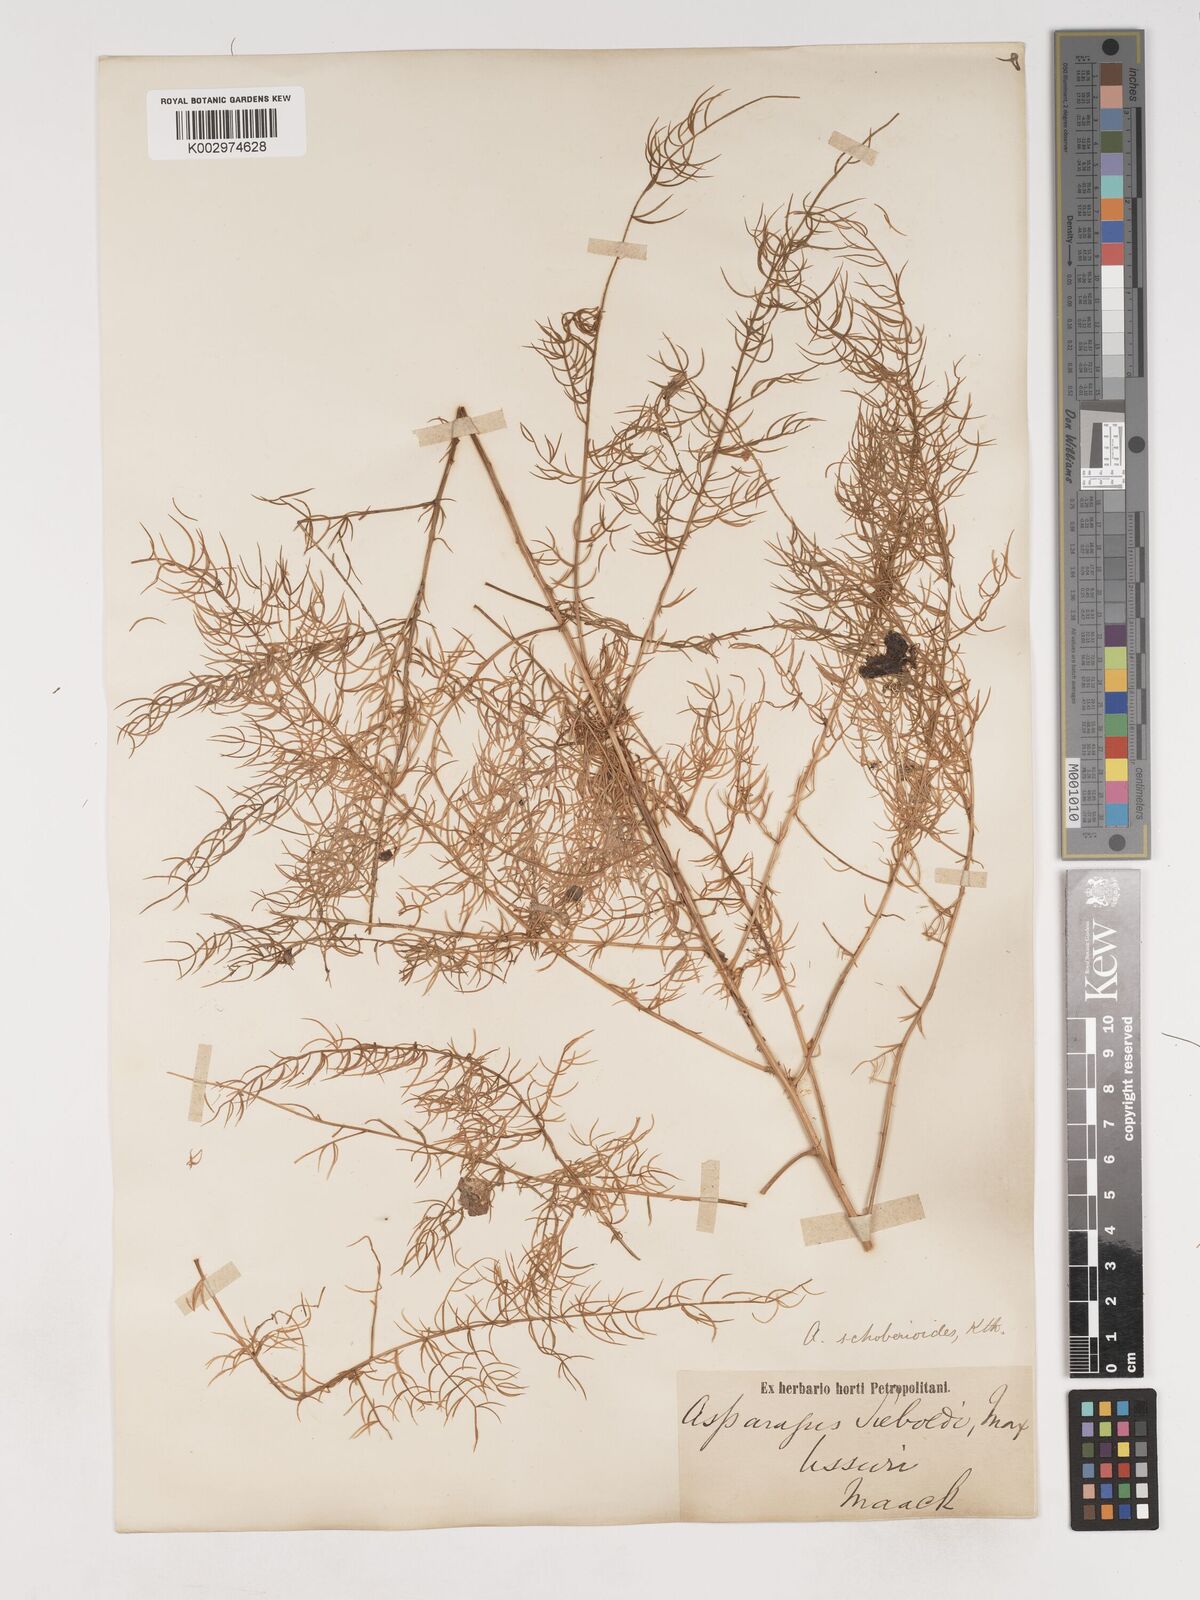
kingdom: Plantae
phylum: Tracheophyta
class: Liliopsida
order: Asparagales
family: Asparagaceae
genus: Asparagus
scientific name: Asparagus schoberioides
